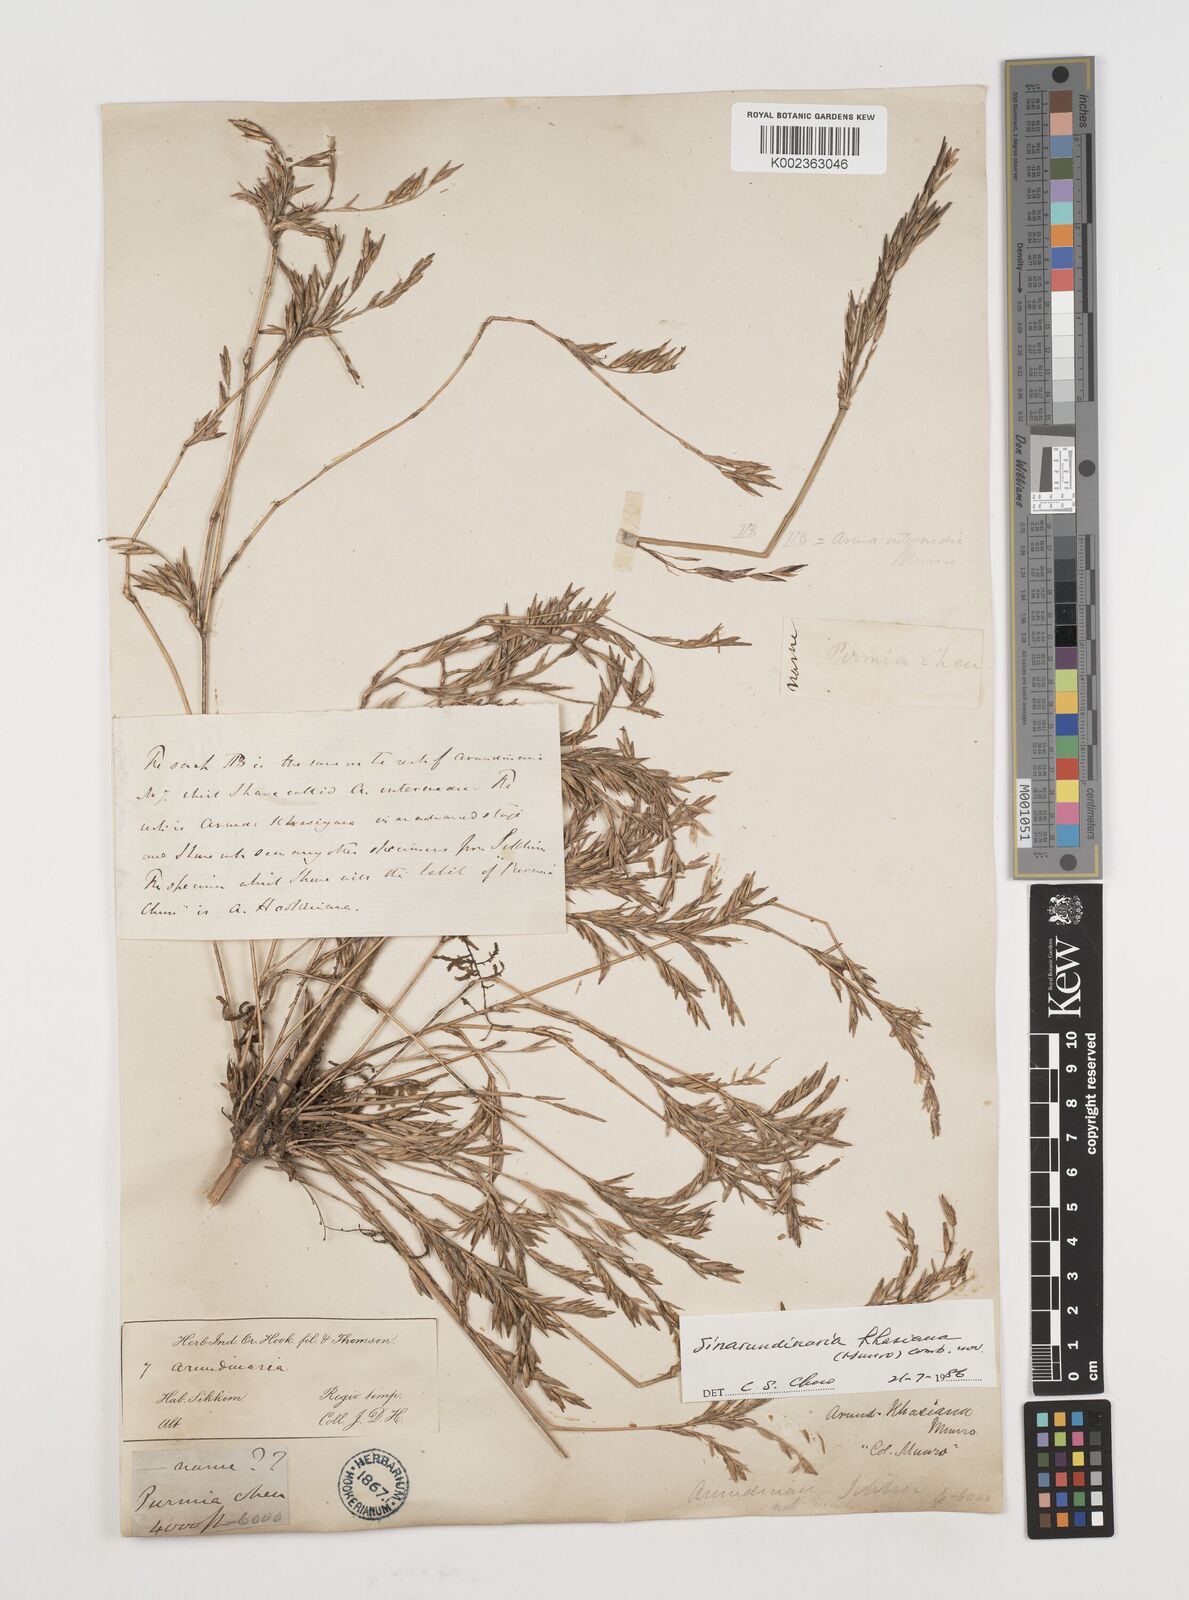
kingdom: Plantae
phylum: Tracheophyta
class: Liliopsida
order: Poales
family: Poaceae
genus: Drepanostachyum
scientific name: Drepanostachyum khasianum
